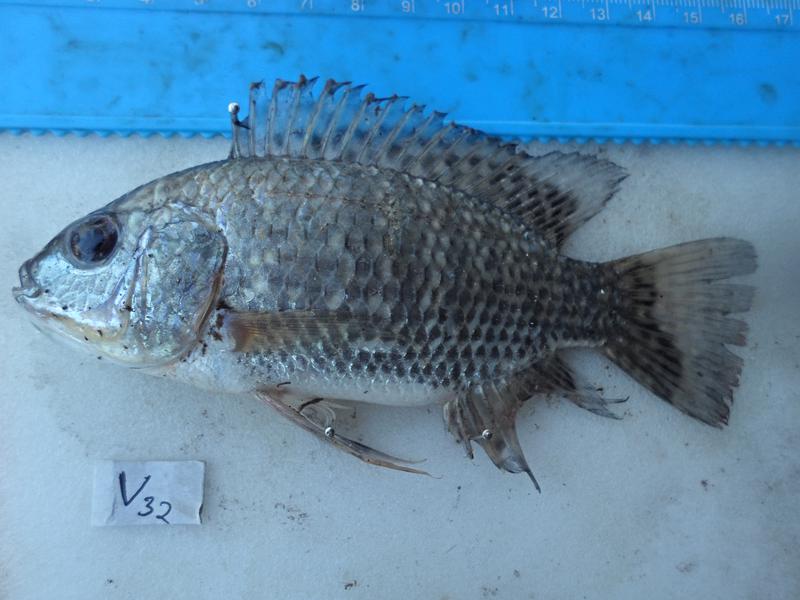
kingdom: Animalia
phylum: Chordata
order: Perciformes
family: Cichlidae
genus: Oreochromis
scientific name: Oreochromis leucostictus
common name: Blue spotted tilapia
